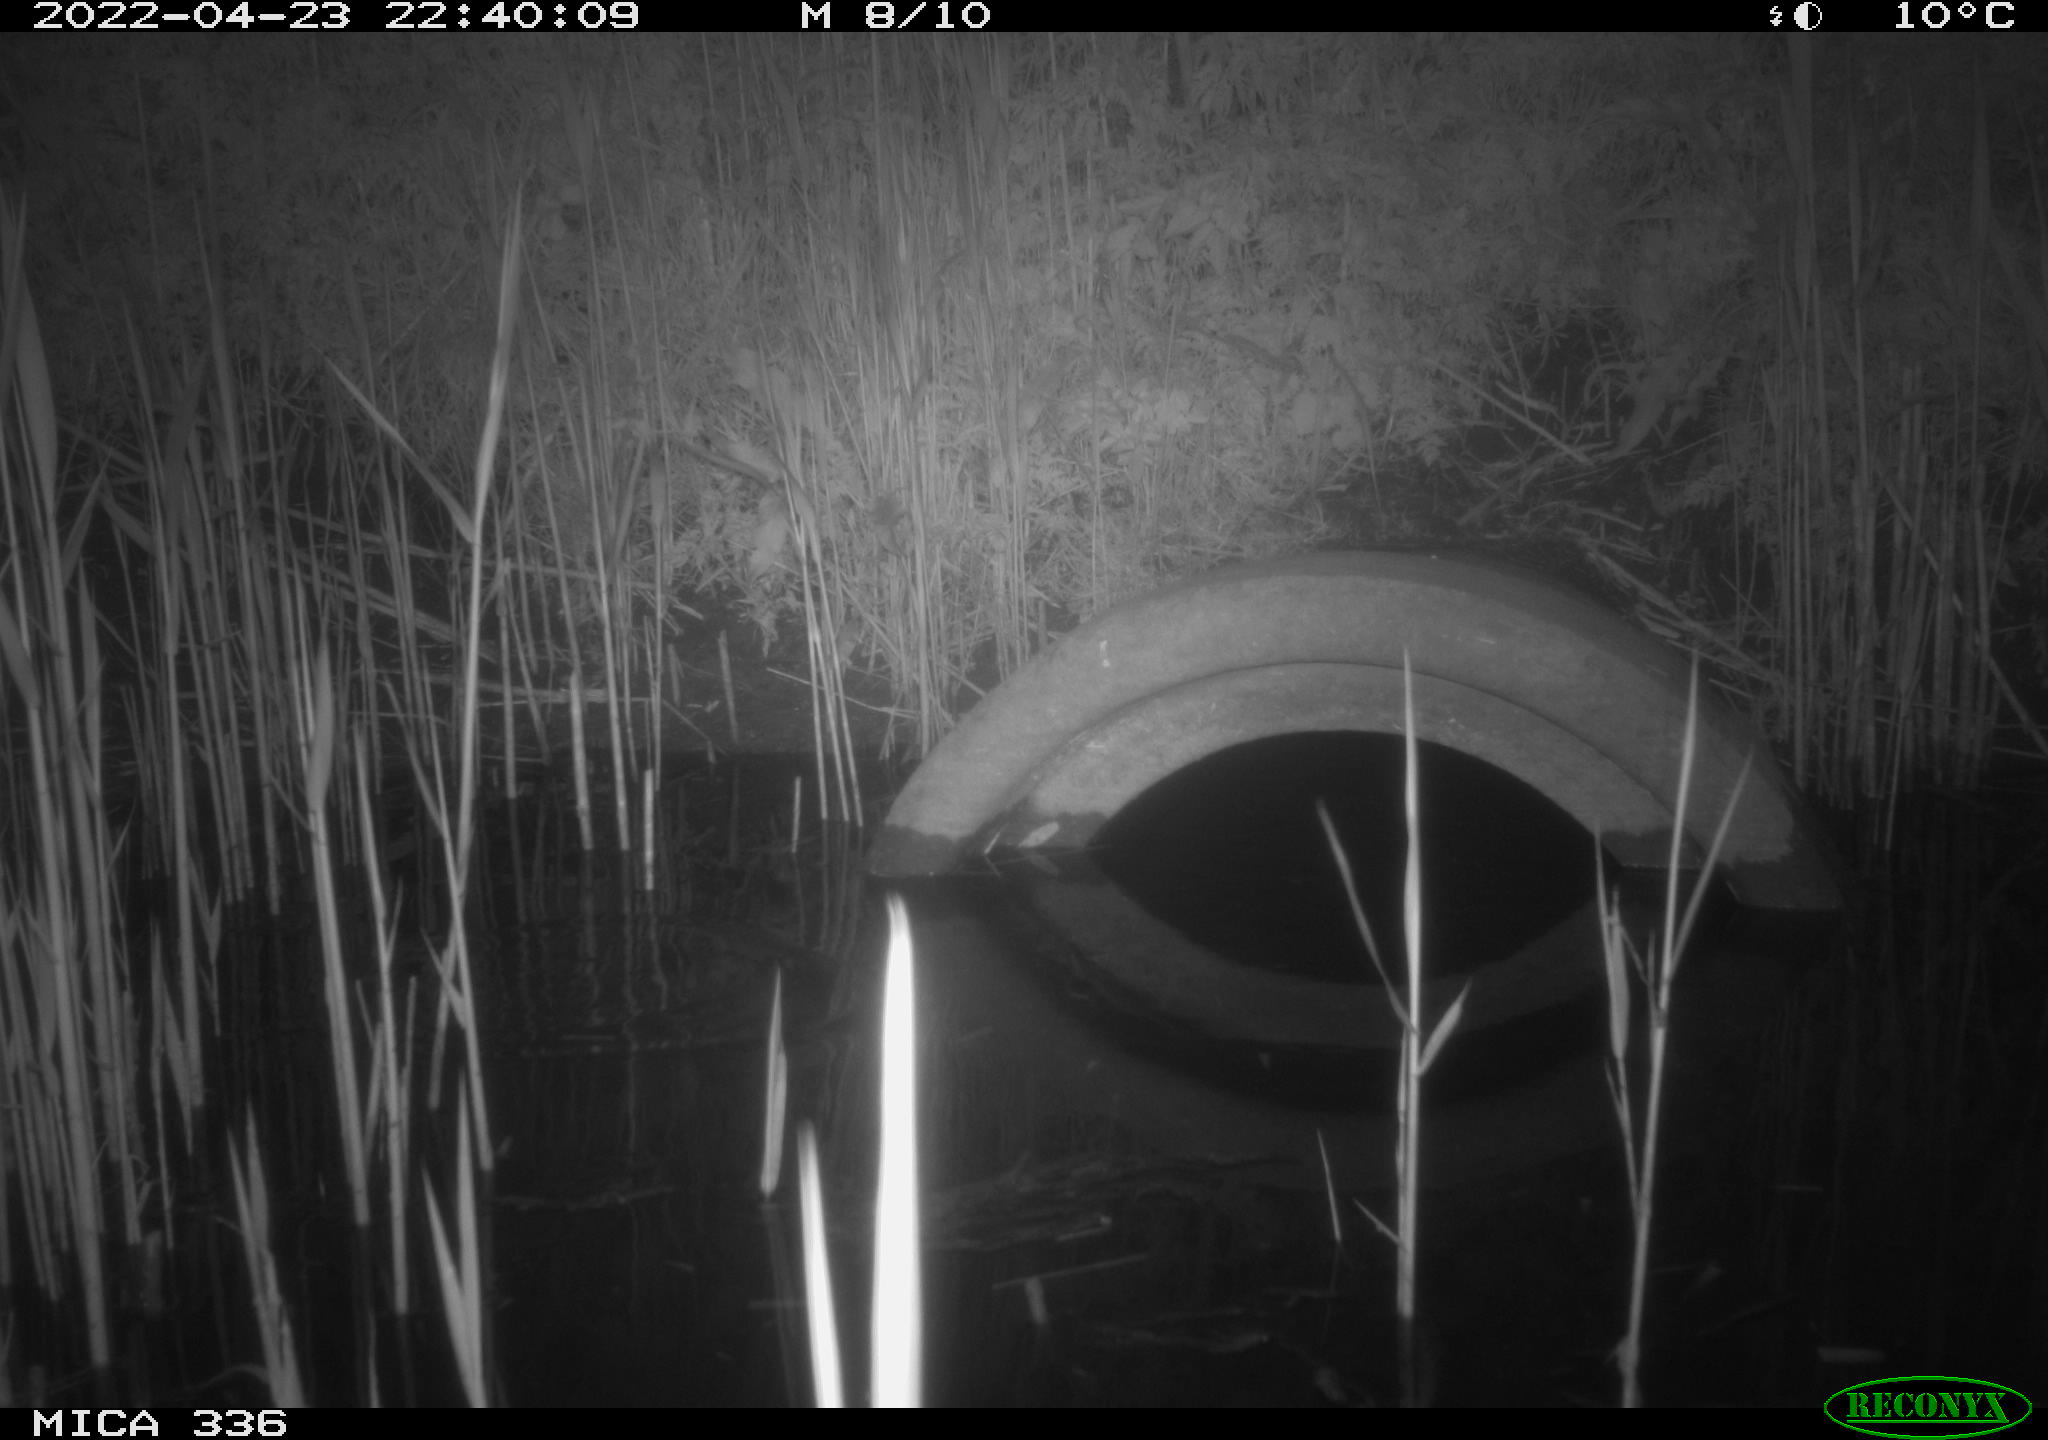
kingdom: Animalia
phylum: Chordata
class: Mammalia
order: Rodentia
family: Muridae
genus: Rattus
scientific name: Rattus norvegicus
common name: Brown rat
